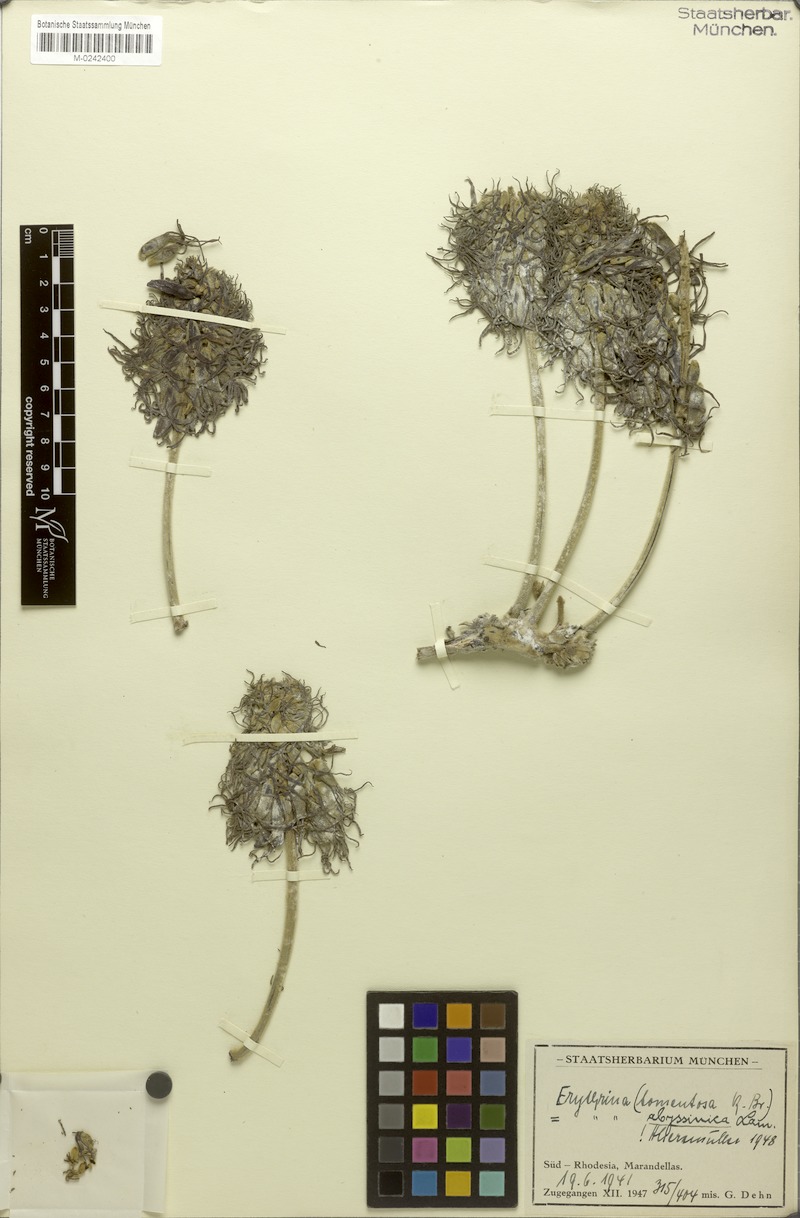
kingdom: Plantae
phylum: Tracheophyta
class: Magnoliopsida
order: Fabales
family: Fabaceae
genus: Erythrina
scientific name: Erythrina abyssinica
